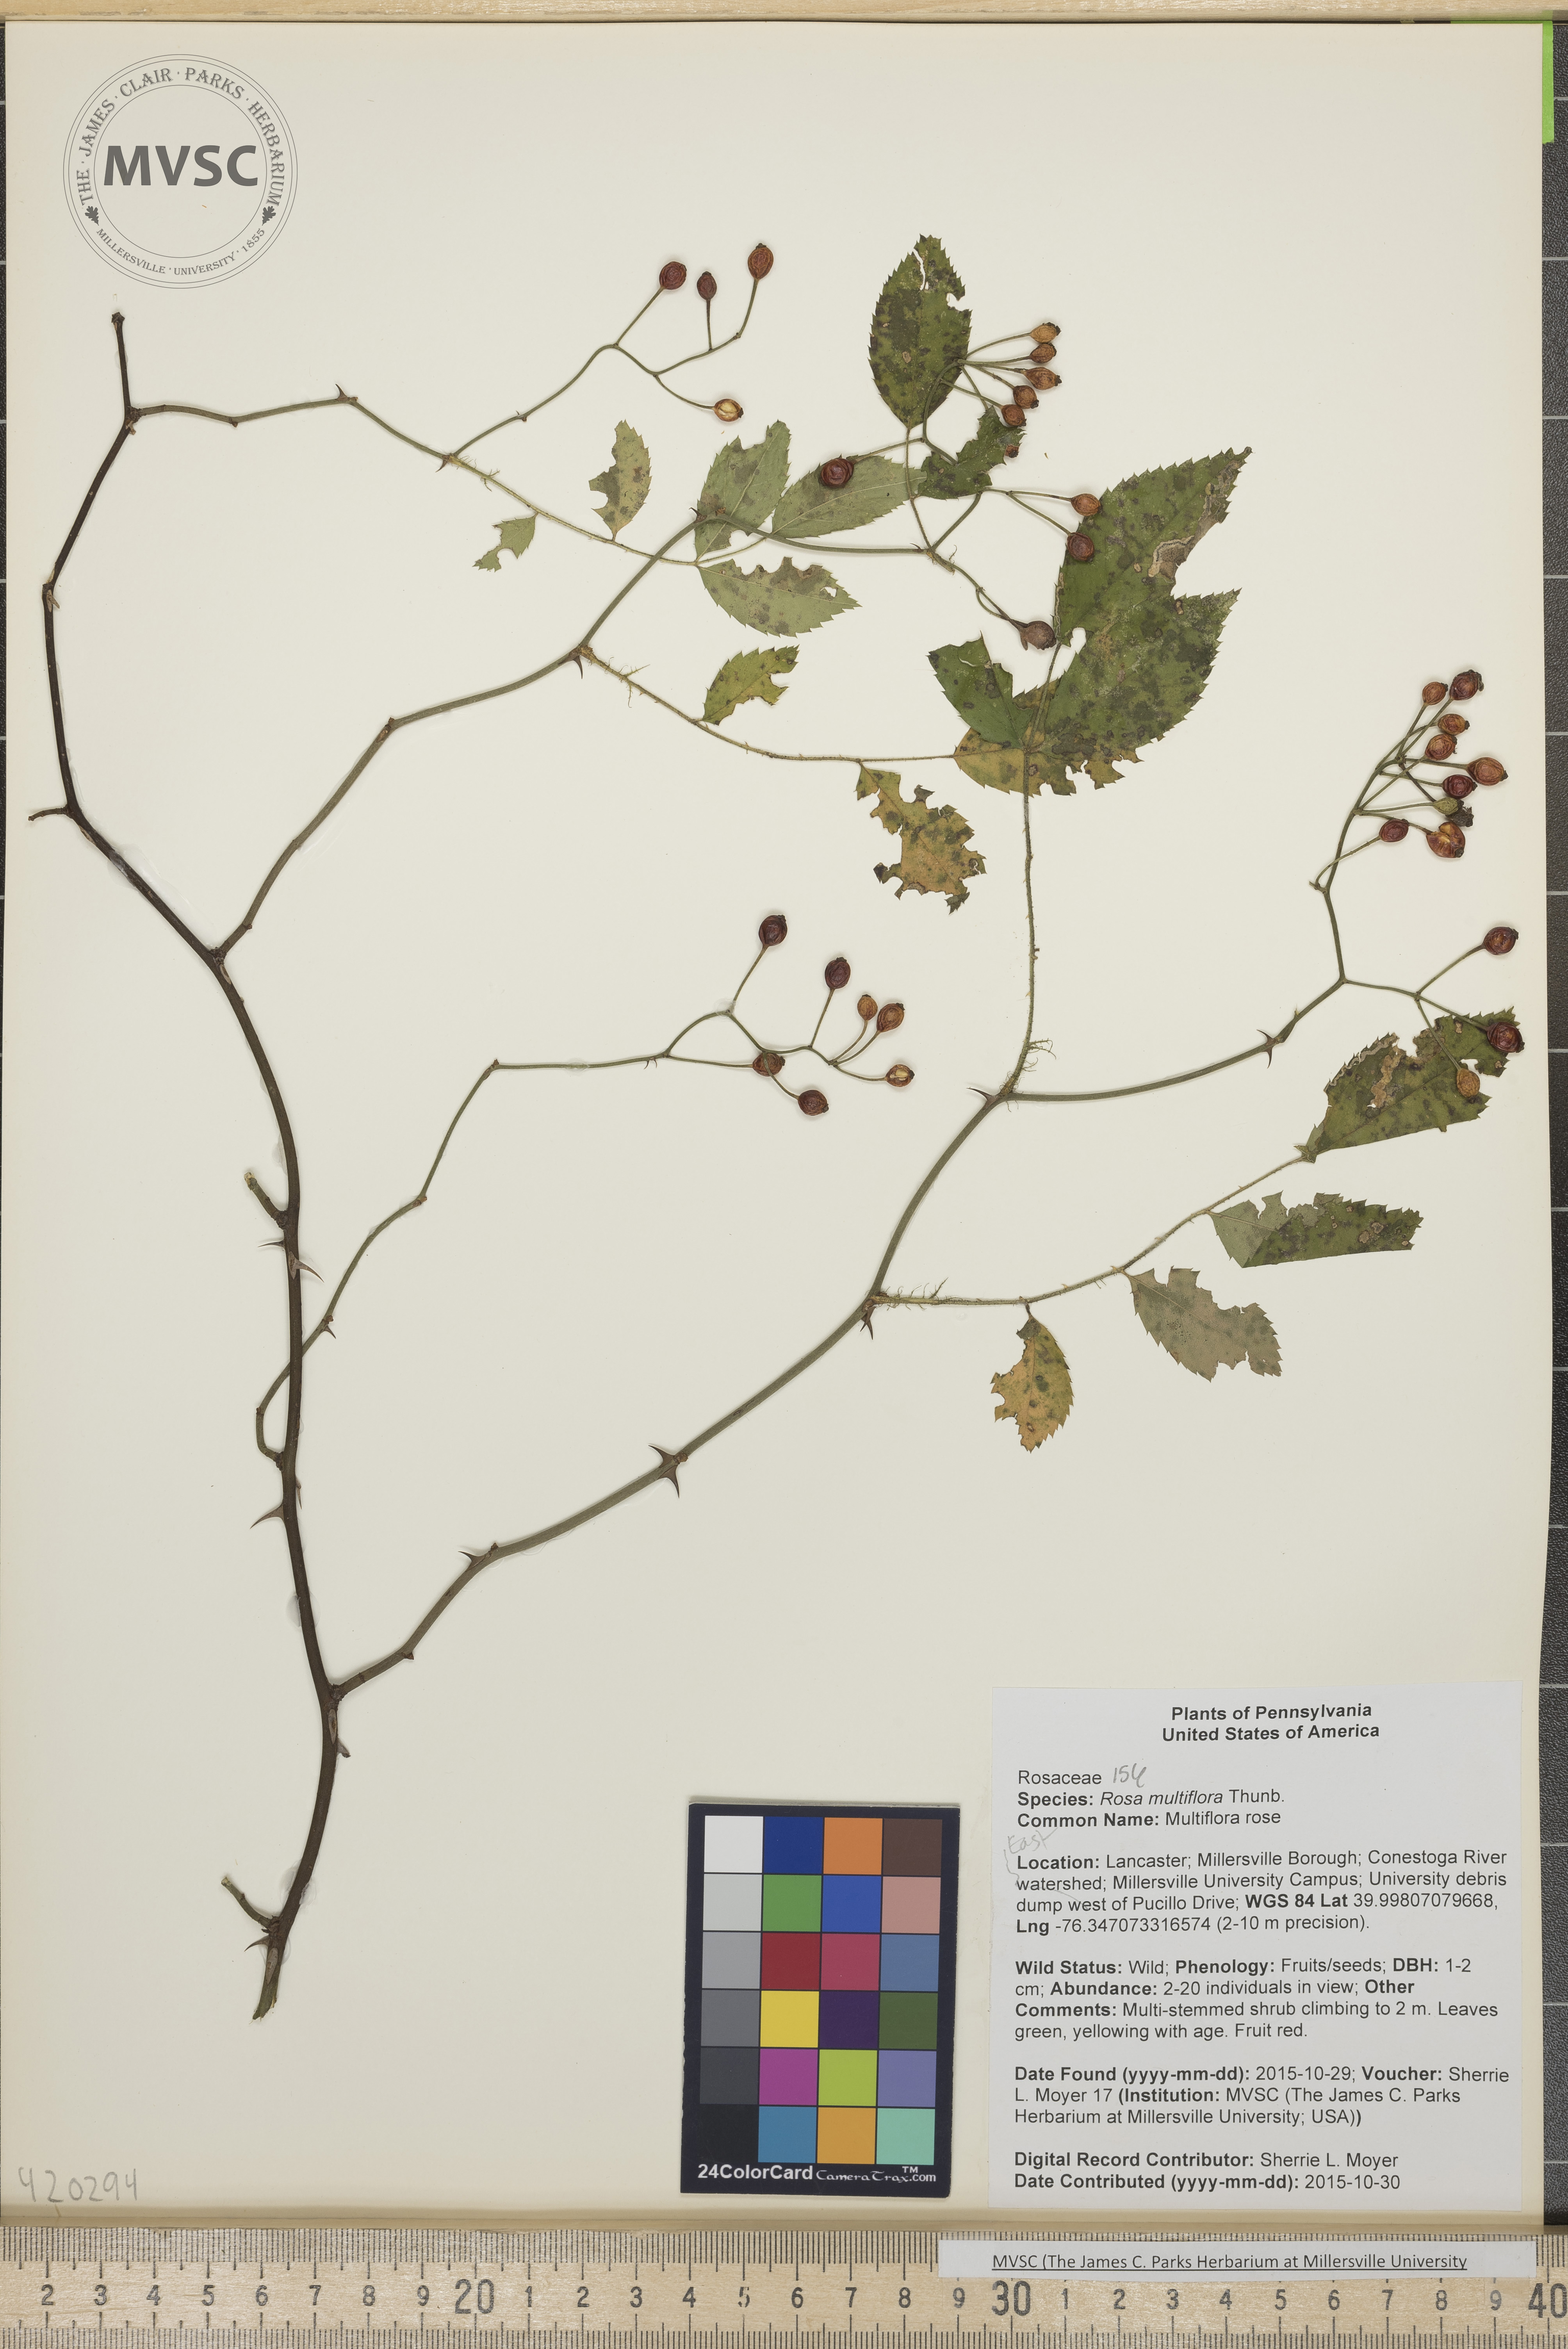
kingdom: Plantae
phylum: Tracheophyta
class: Magnoliopsida
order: Rosales
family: Rosaceae
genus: Rosa
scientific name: Rosa multiflora
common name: Multiflora rose
